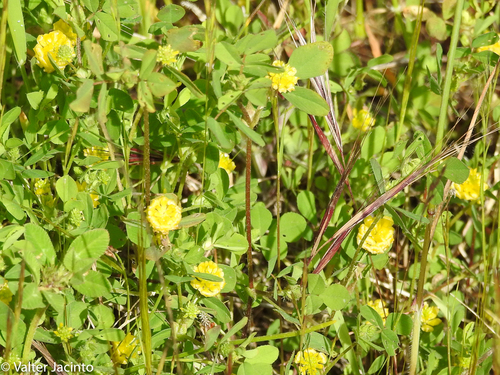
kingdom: Plantae
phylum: Tracheophyta
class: Magnoliopsida
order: Fabales
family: Fabaceae
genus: Trifolium
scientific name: Trifolium campestre
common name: Field clover
